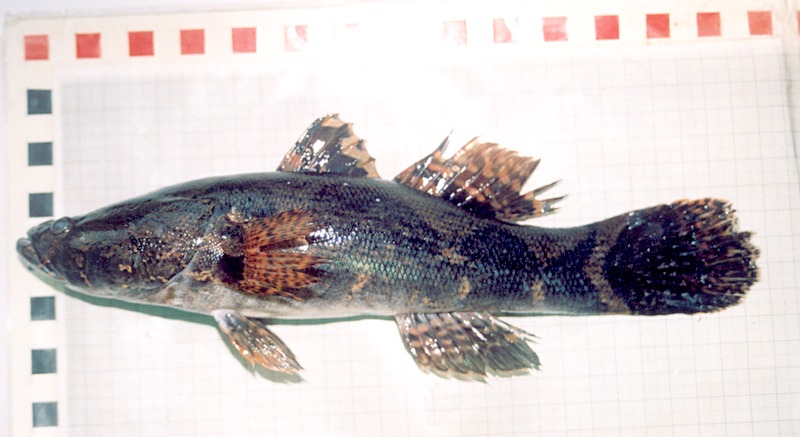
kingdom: Animalia
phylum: Chordata
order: Perciformes
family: Eleotridae
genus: Oxyeleotris
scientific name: Oxyeleotris marmorata
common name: Marble goby
